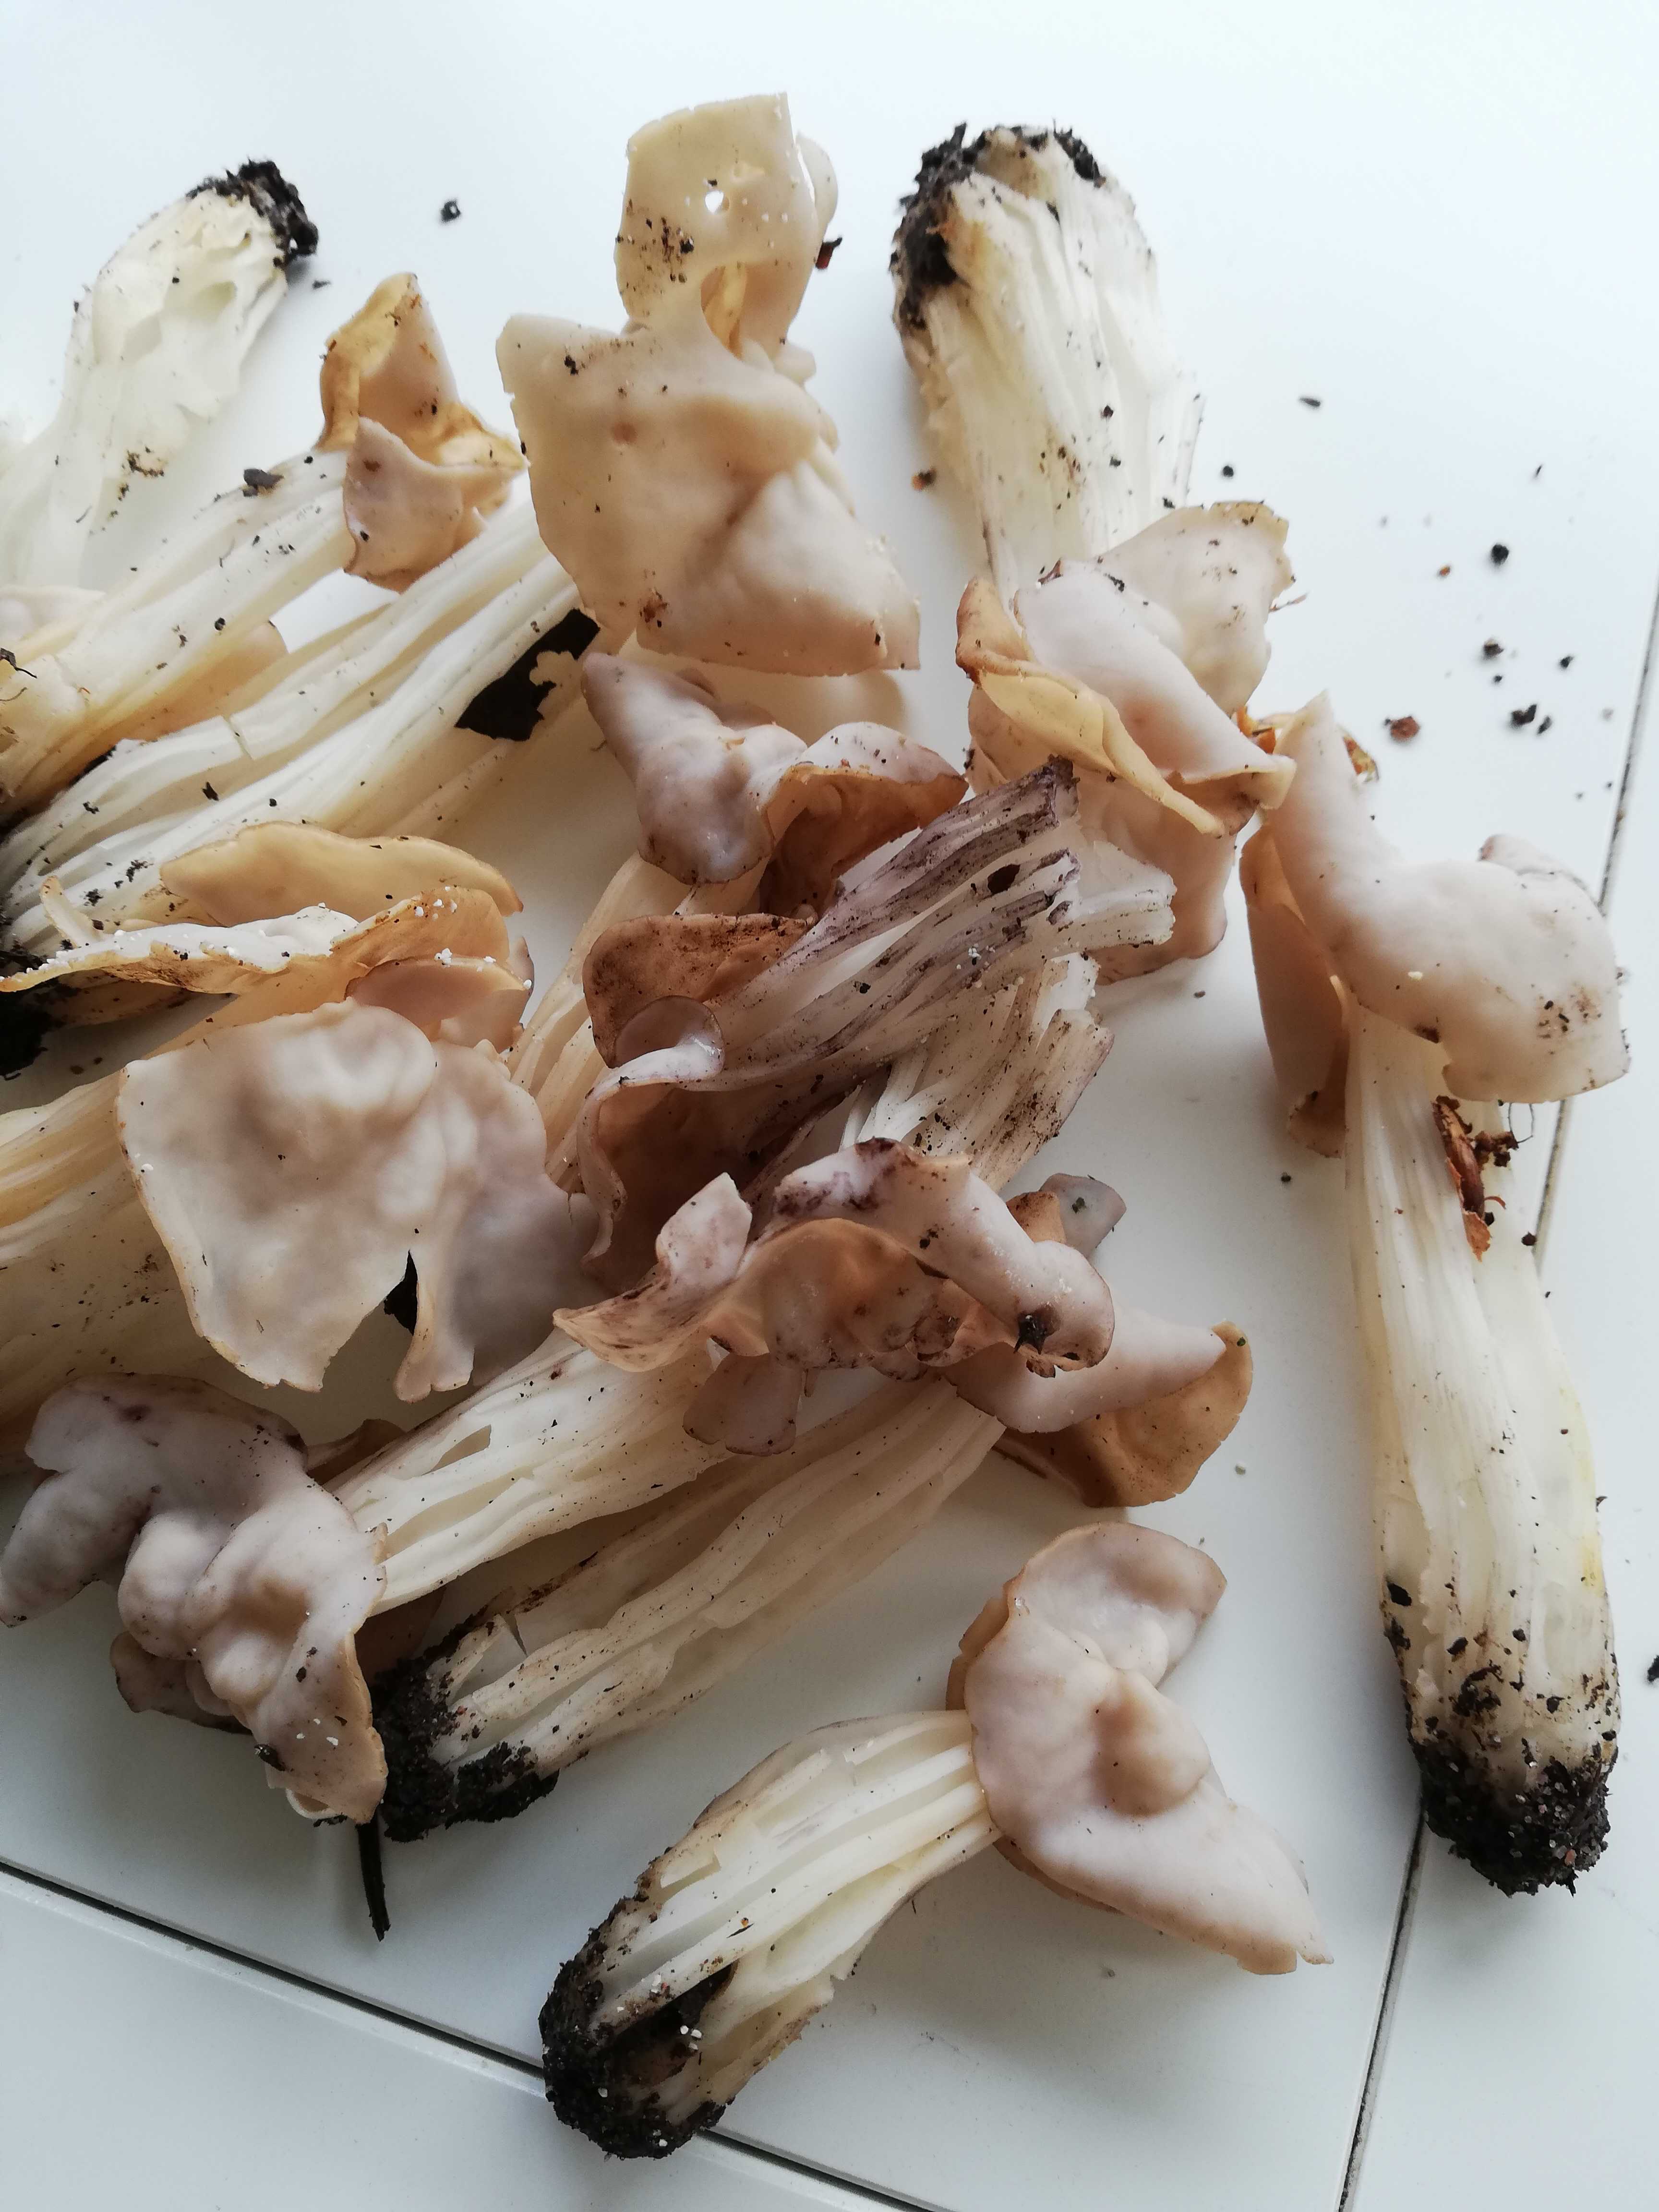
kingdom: Fungi
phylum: Ascomycota
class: Pezizomycetes
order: Pezizales
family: Helvellaceae
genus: Helvella
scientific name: Helvella crispa
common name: kruset foldhat
